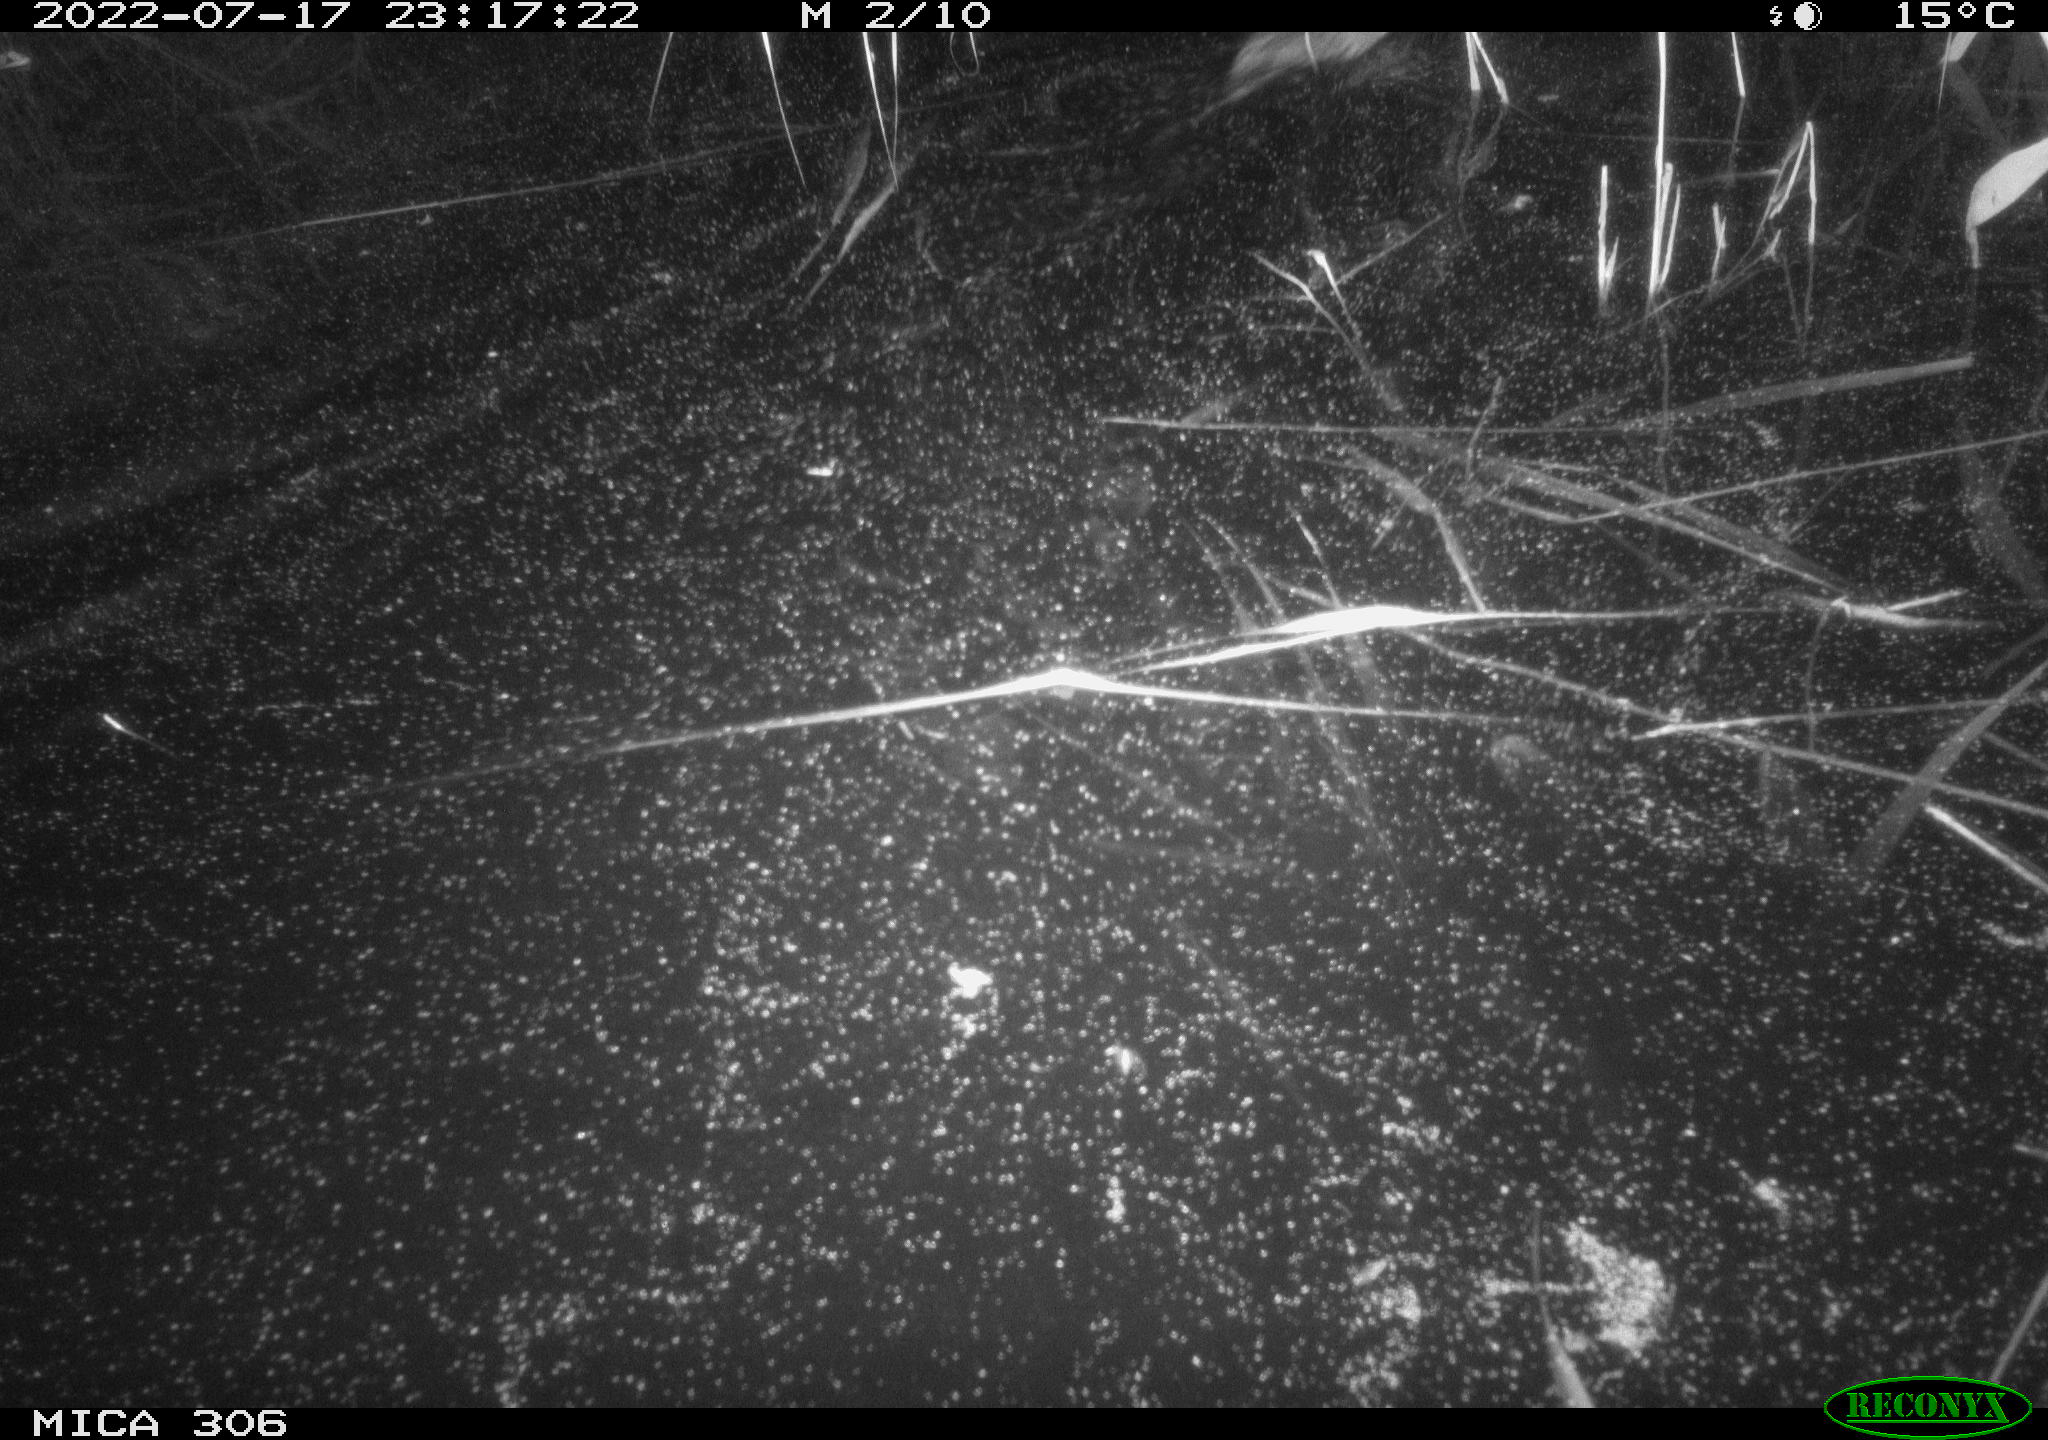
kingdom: Animalia
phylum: Chordata
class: Mammalia
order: Rodentia
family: Cricetidae
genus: Ondatra
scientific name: Ondatra zibethicus
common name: Muskrat
